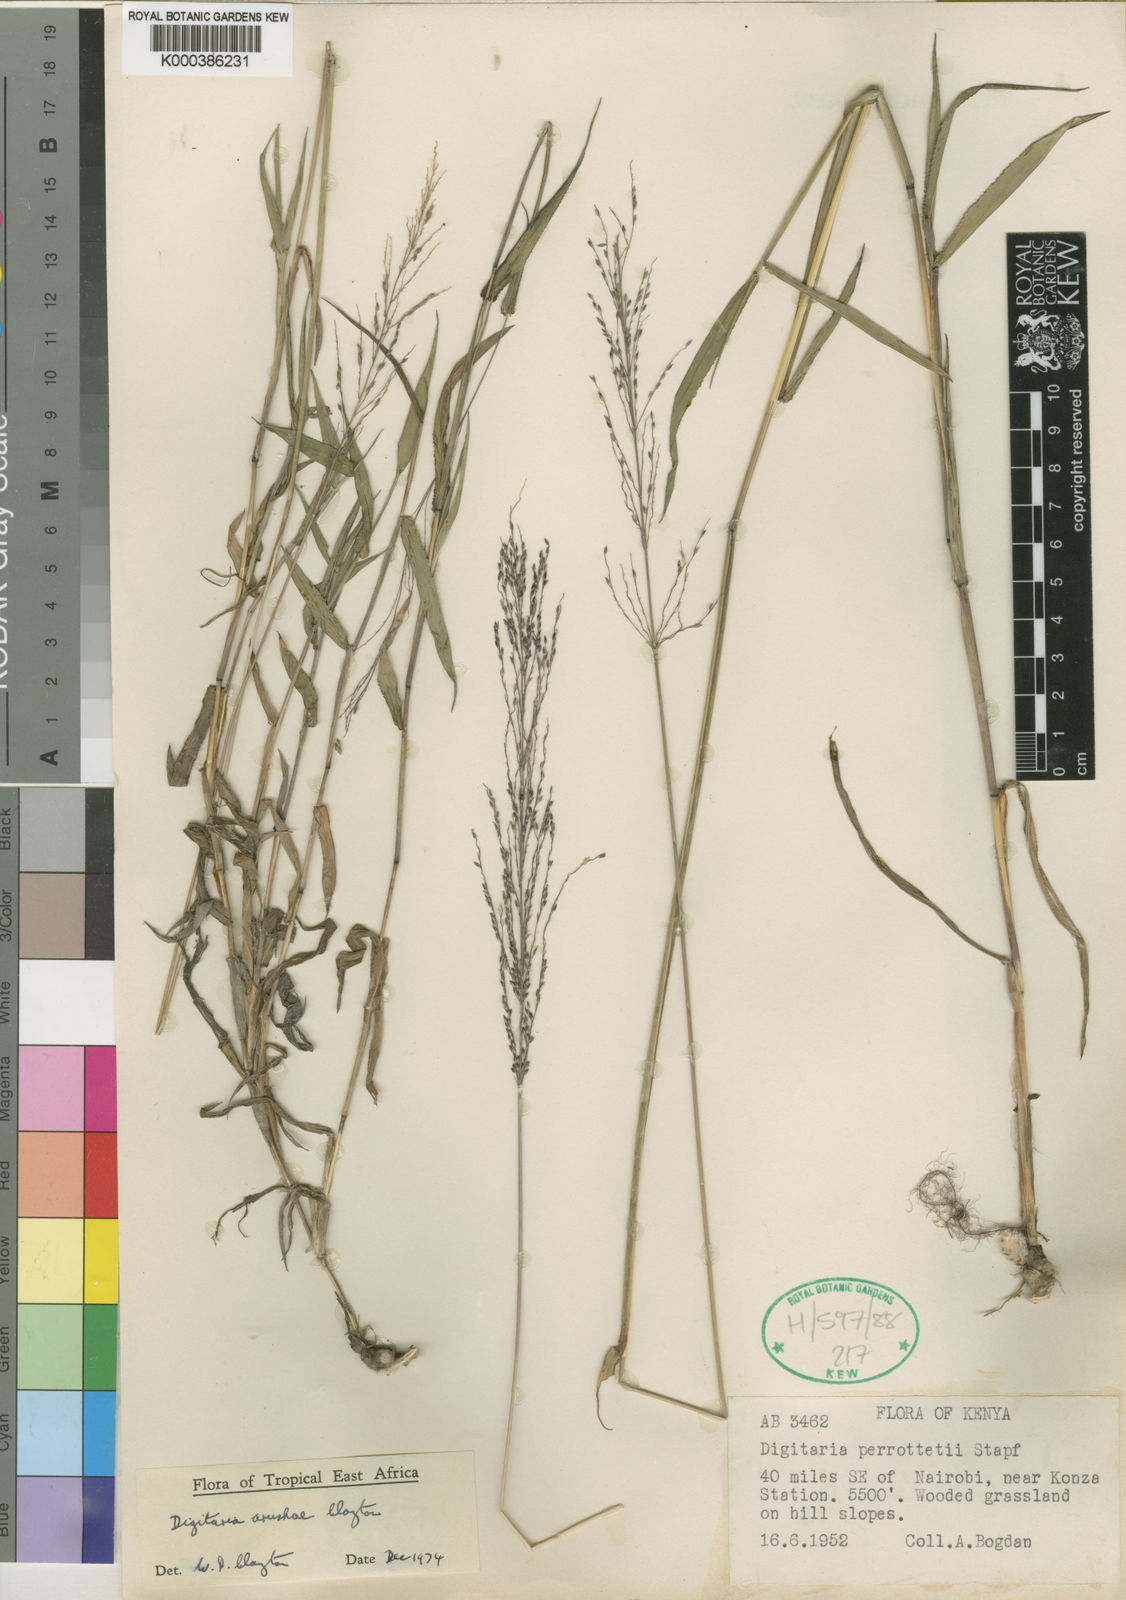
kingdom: Plantae
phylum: Tracheophyta
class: Liliopsida
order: Poales
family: Poaceae
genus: Digitaria
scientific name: Digitaria arushae
